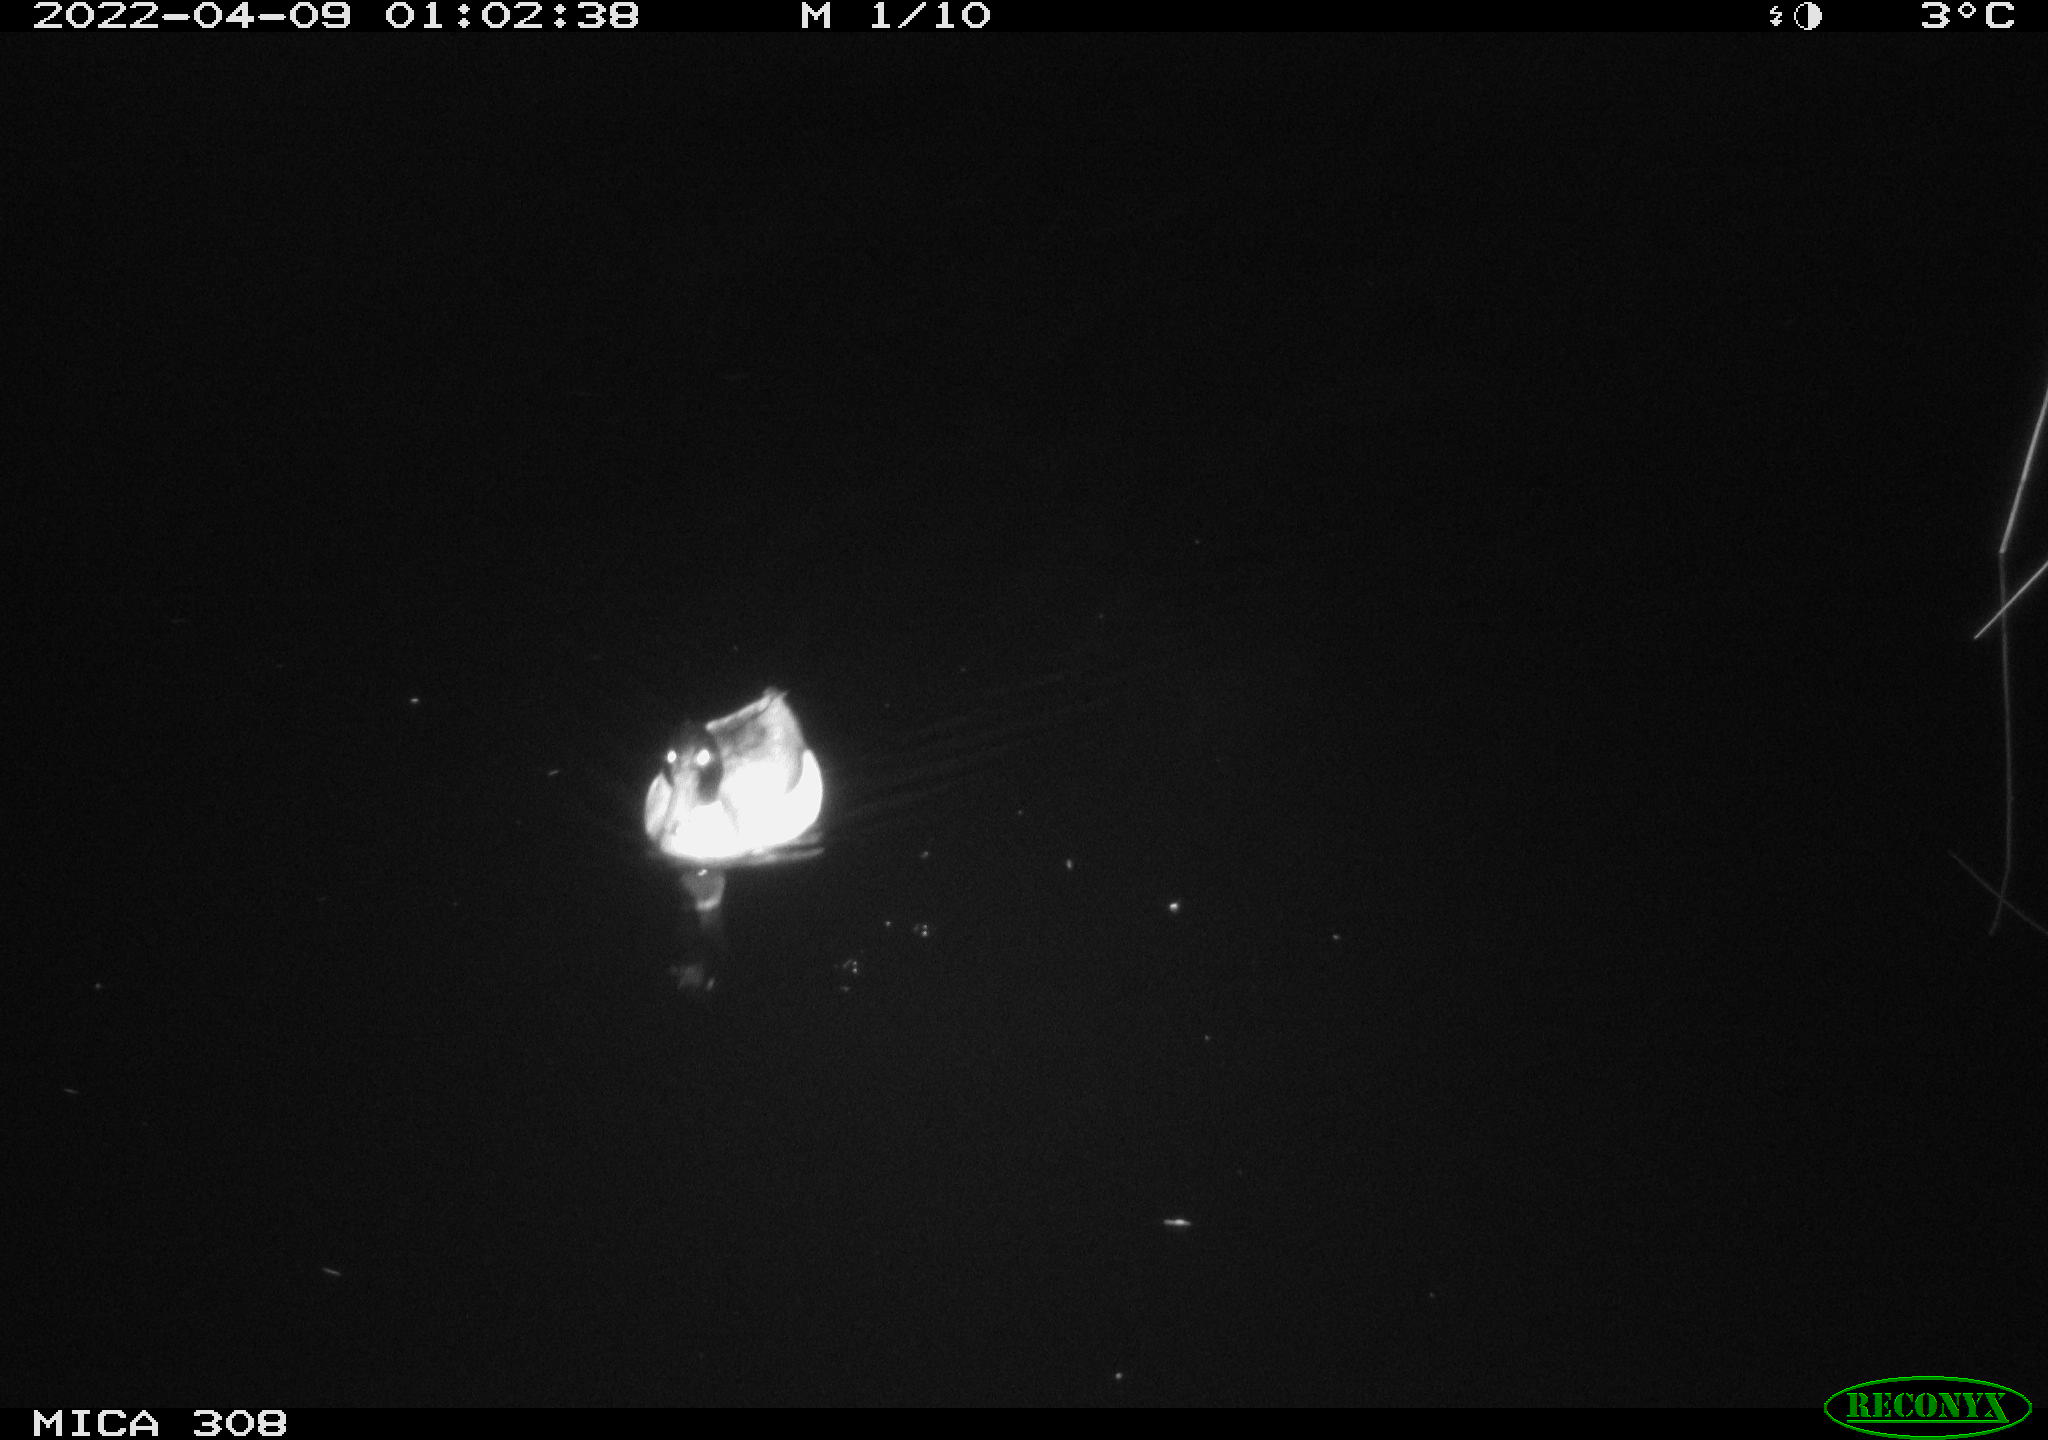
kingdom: Animalia
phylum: Chordata
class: Aves
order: Anseriformes
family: Anatidae
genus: Anas
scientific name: Anas platyrhynchos
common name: Mallard
